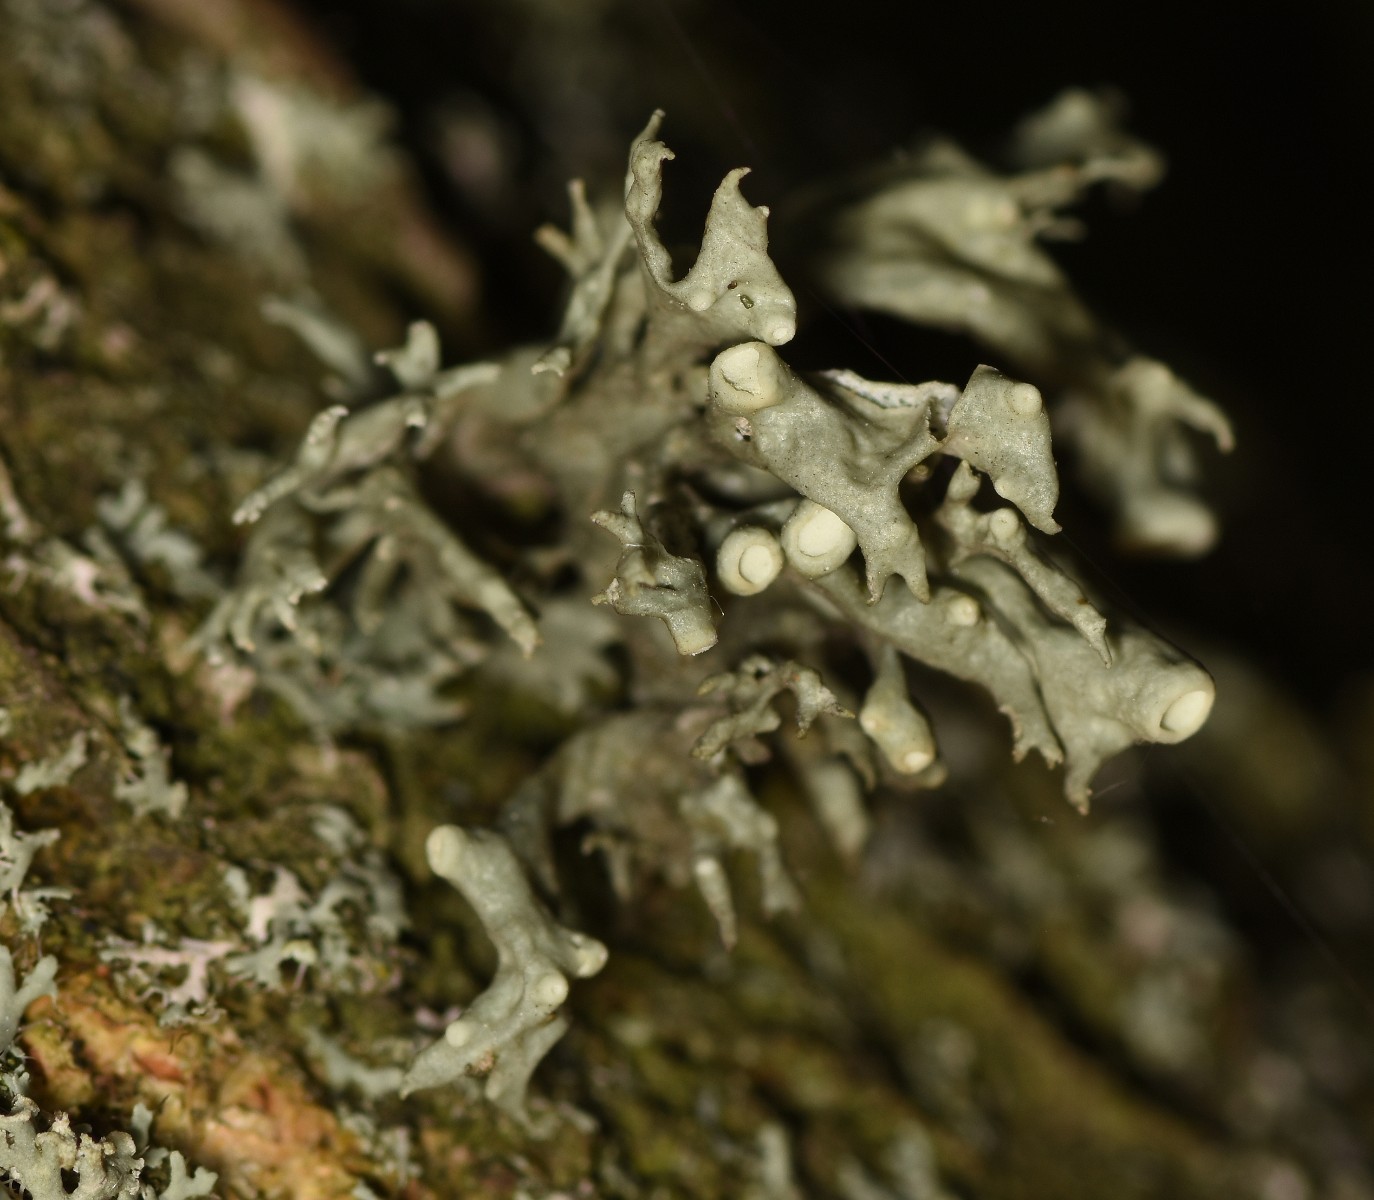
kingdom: Fungi
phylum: Ascomycota
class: Lecanoromycetes
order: Lecanorales
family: Ramalinaceae
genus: Ramalina
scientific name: Ramalina fastigiata
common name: tue-grenlav
